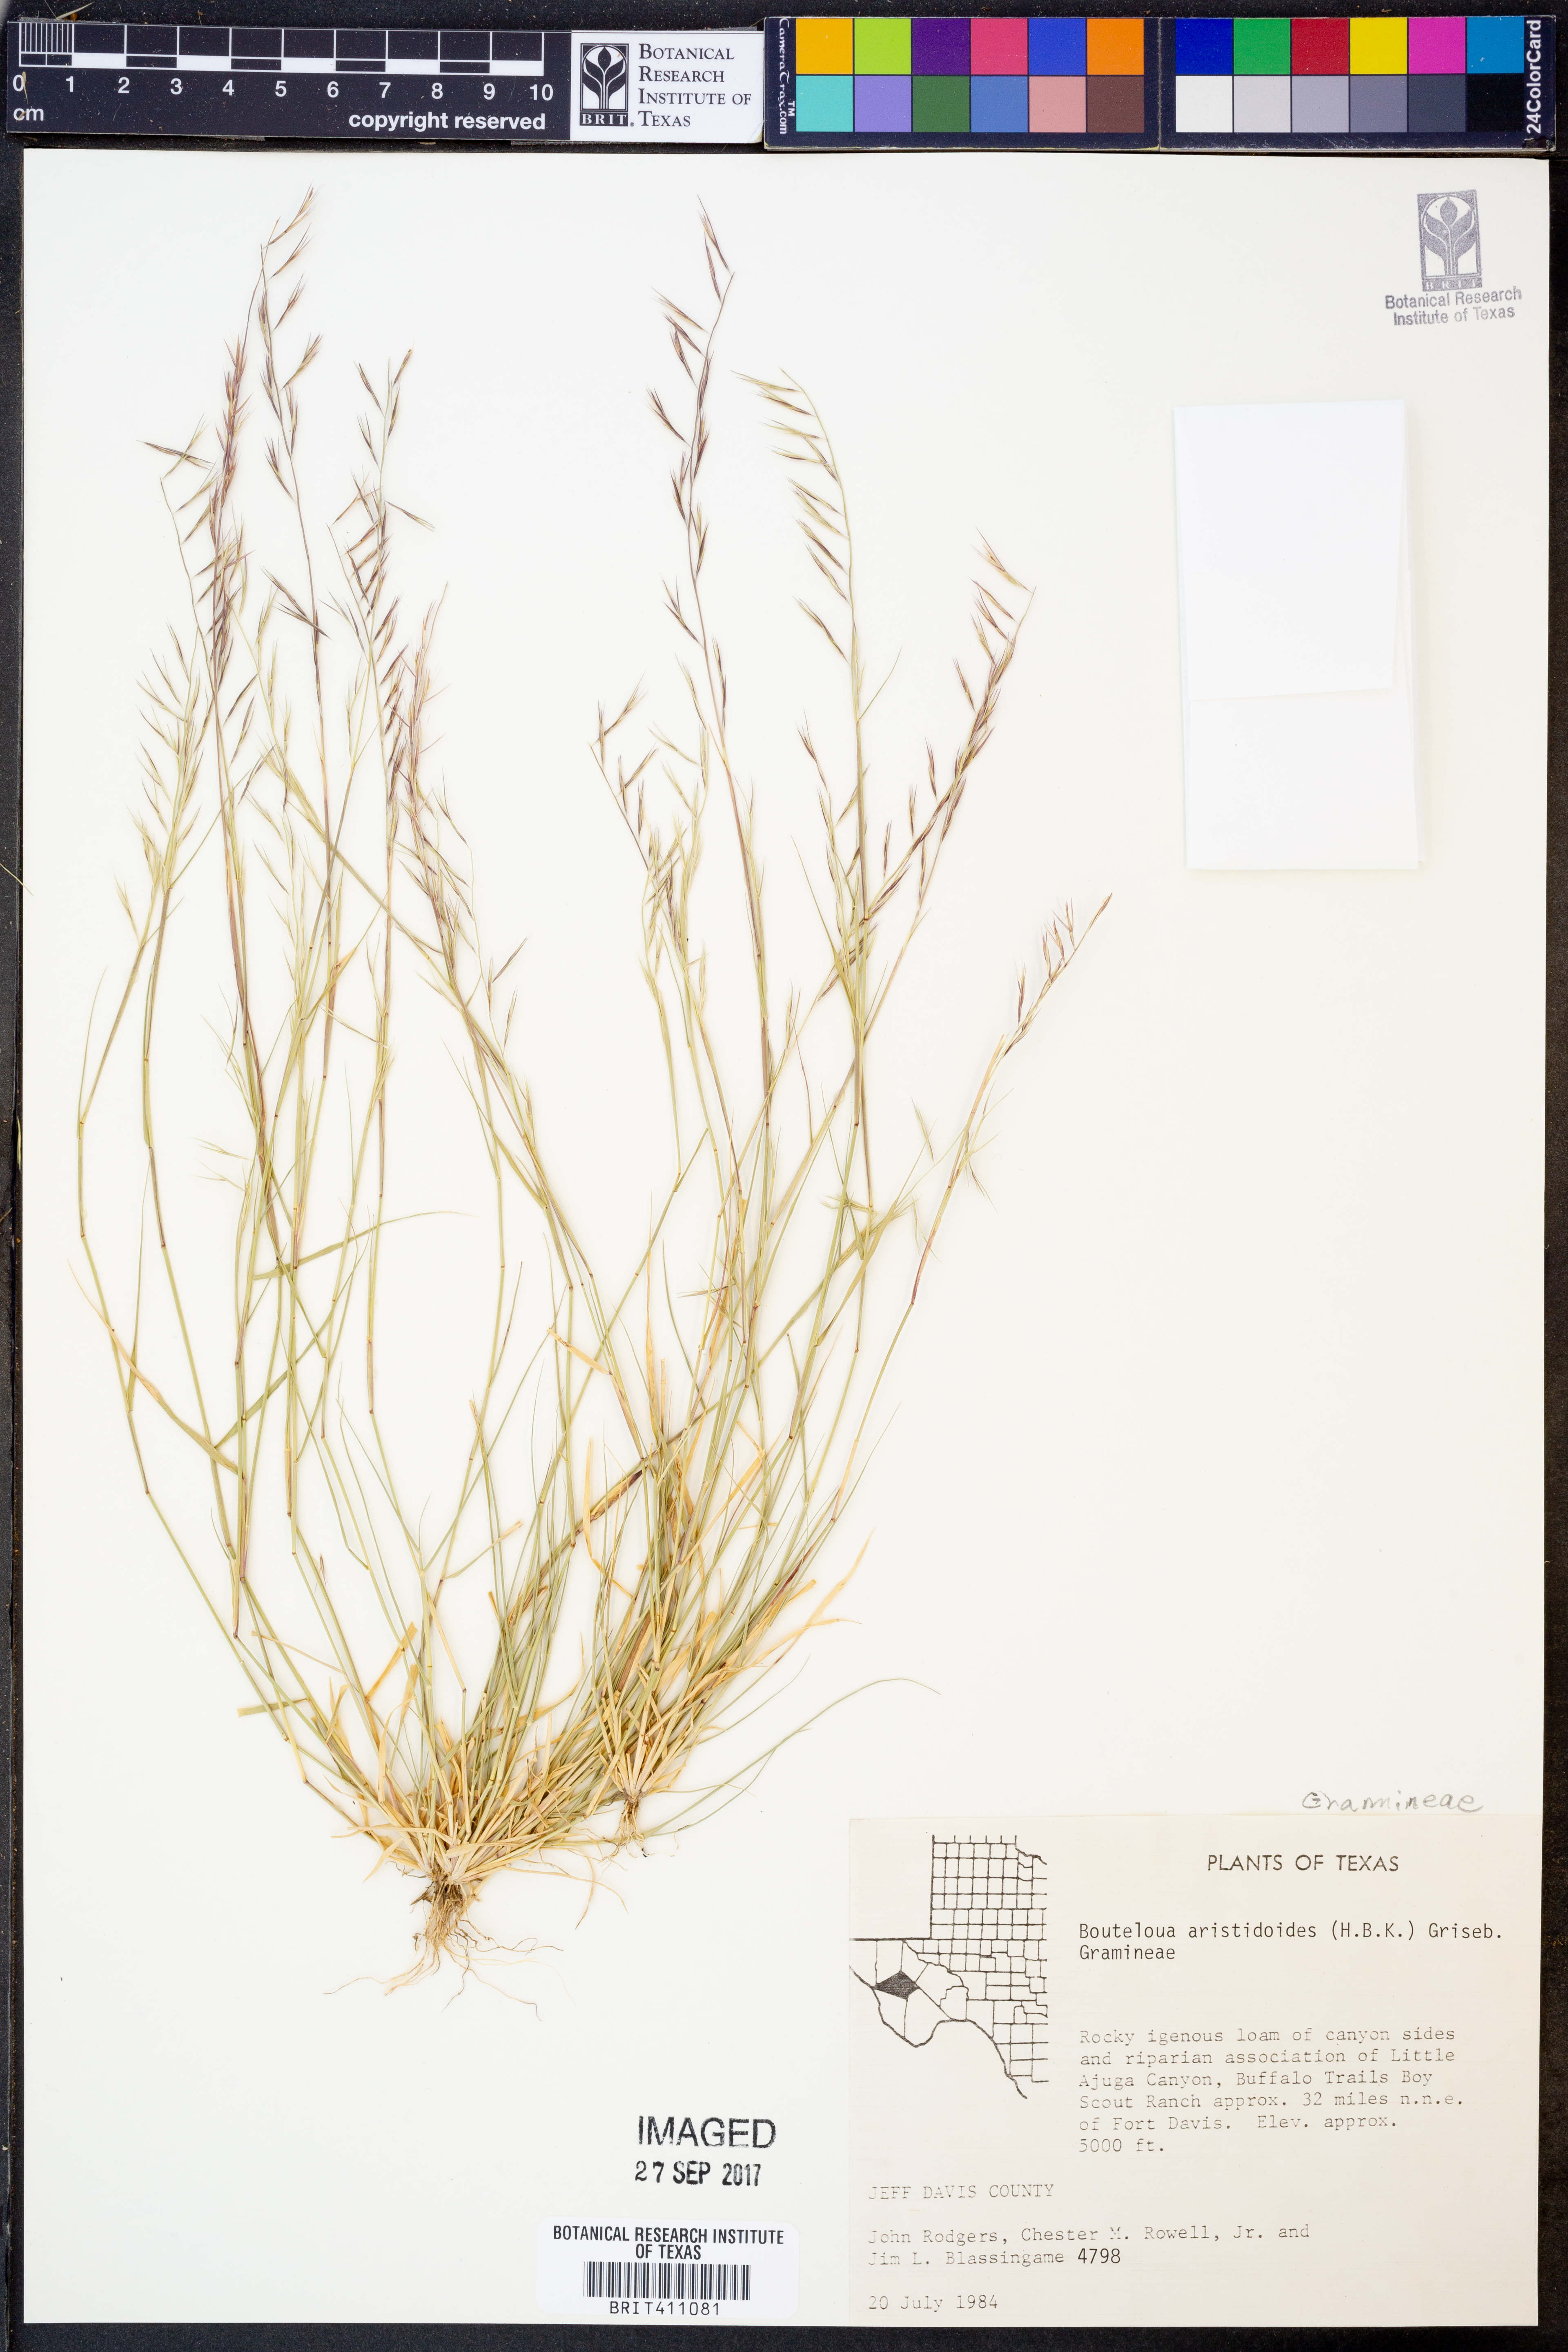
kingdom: Plantae
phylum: Tracheophyta
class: Liliopsida
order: Poales
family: Poaceae
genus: Bouteloua
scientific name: Bouteloua aristidoides
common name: Needle grama
